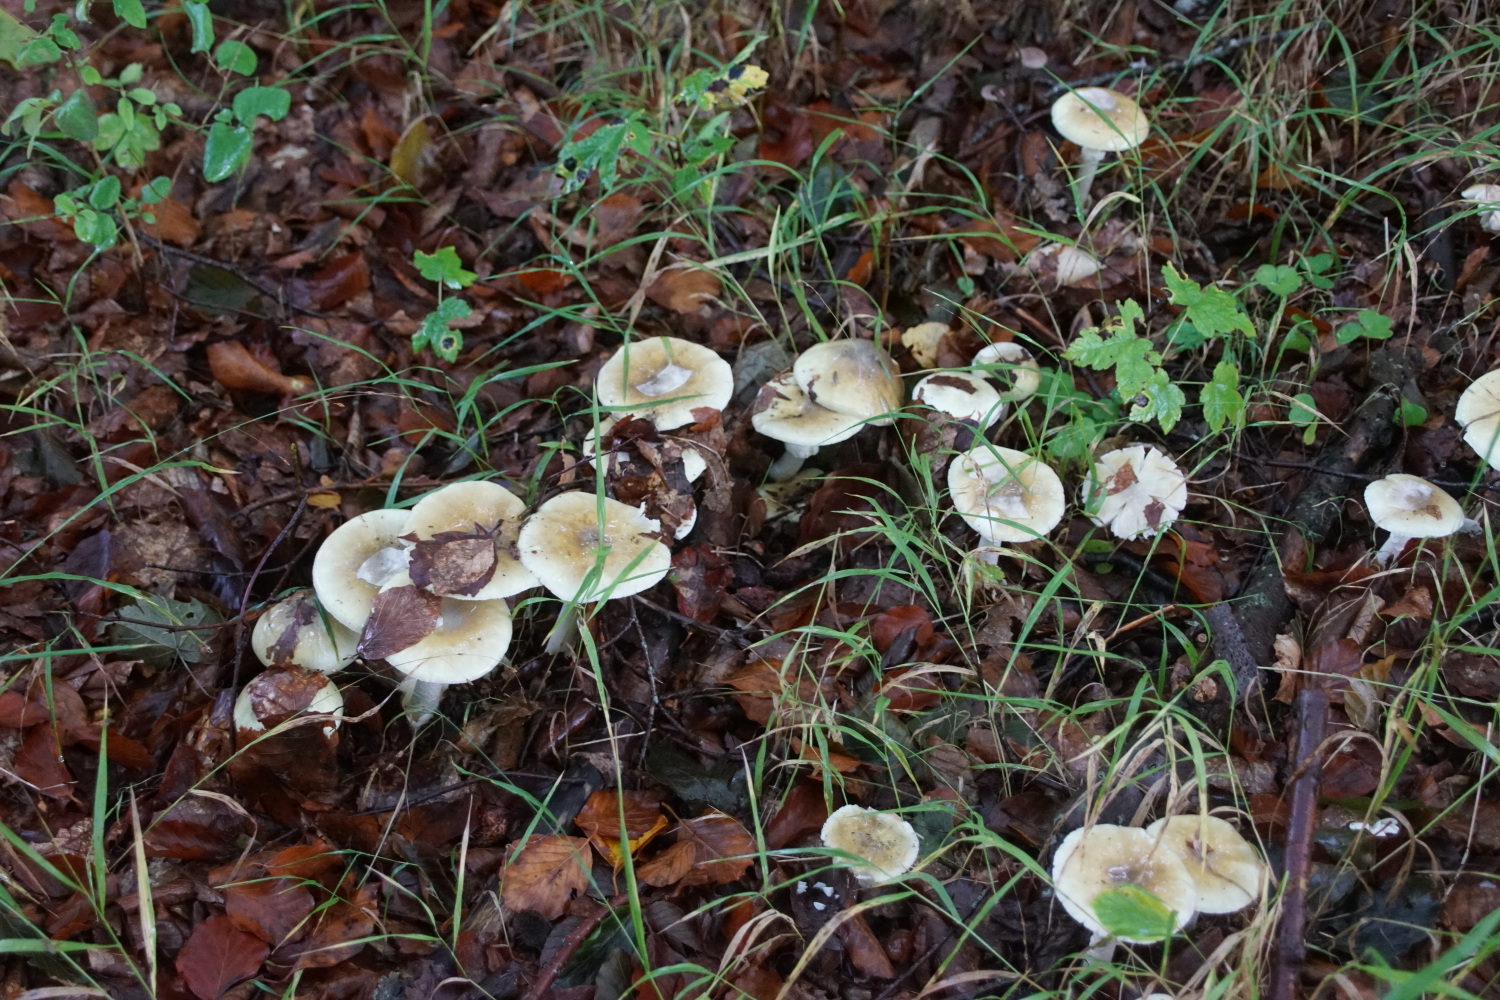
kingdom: Fungi
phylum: Basidiomycota
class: Agaricomycetes
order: Agaricales
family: Amanitaceae
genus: Amanita
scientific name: Amanita phalloides
